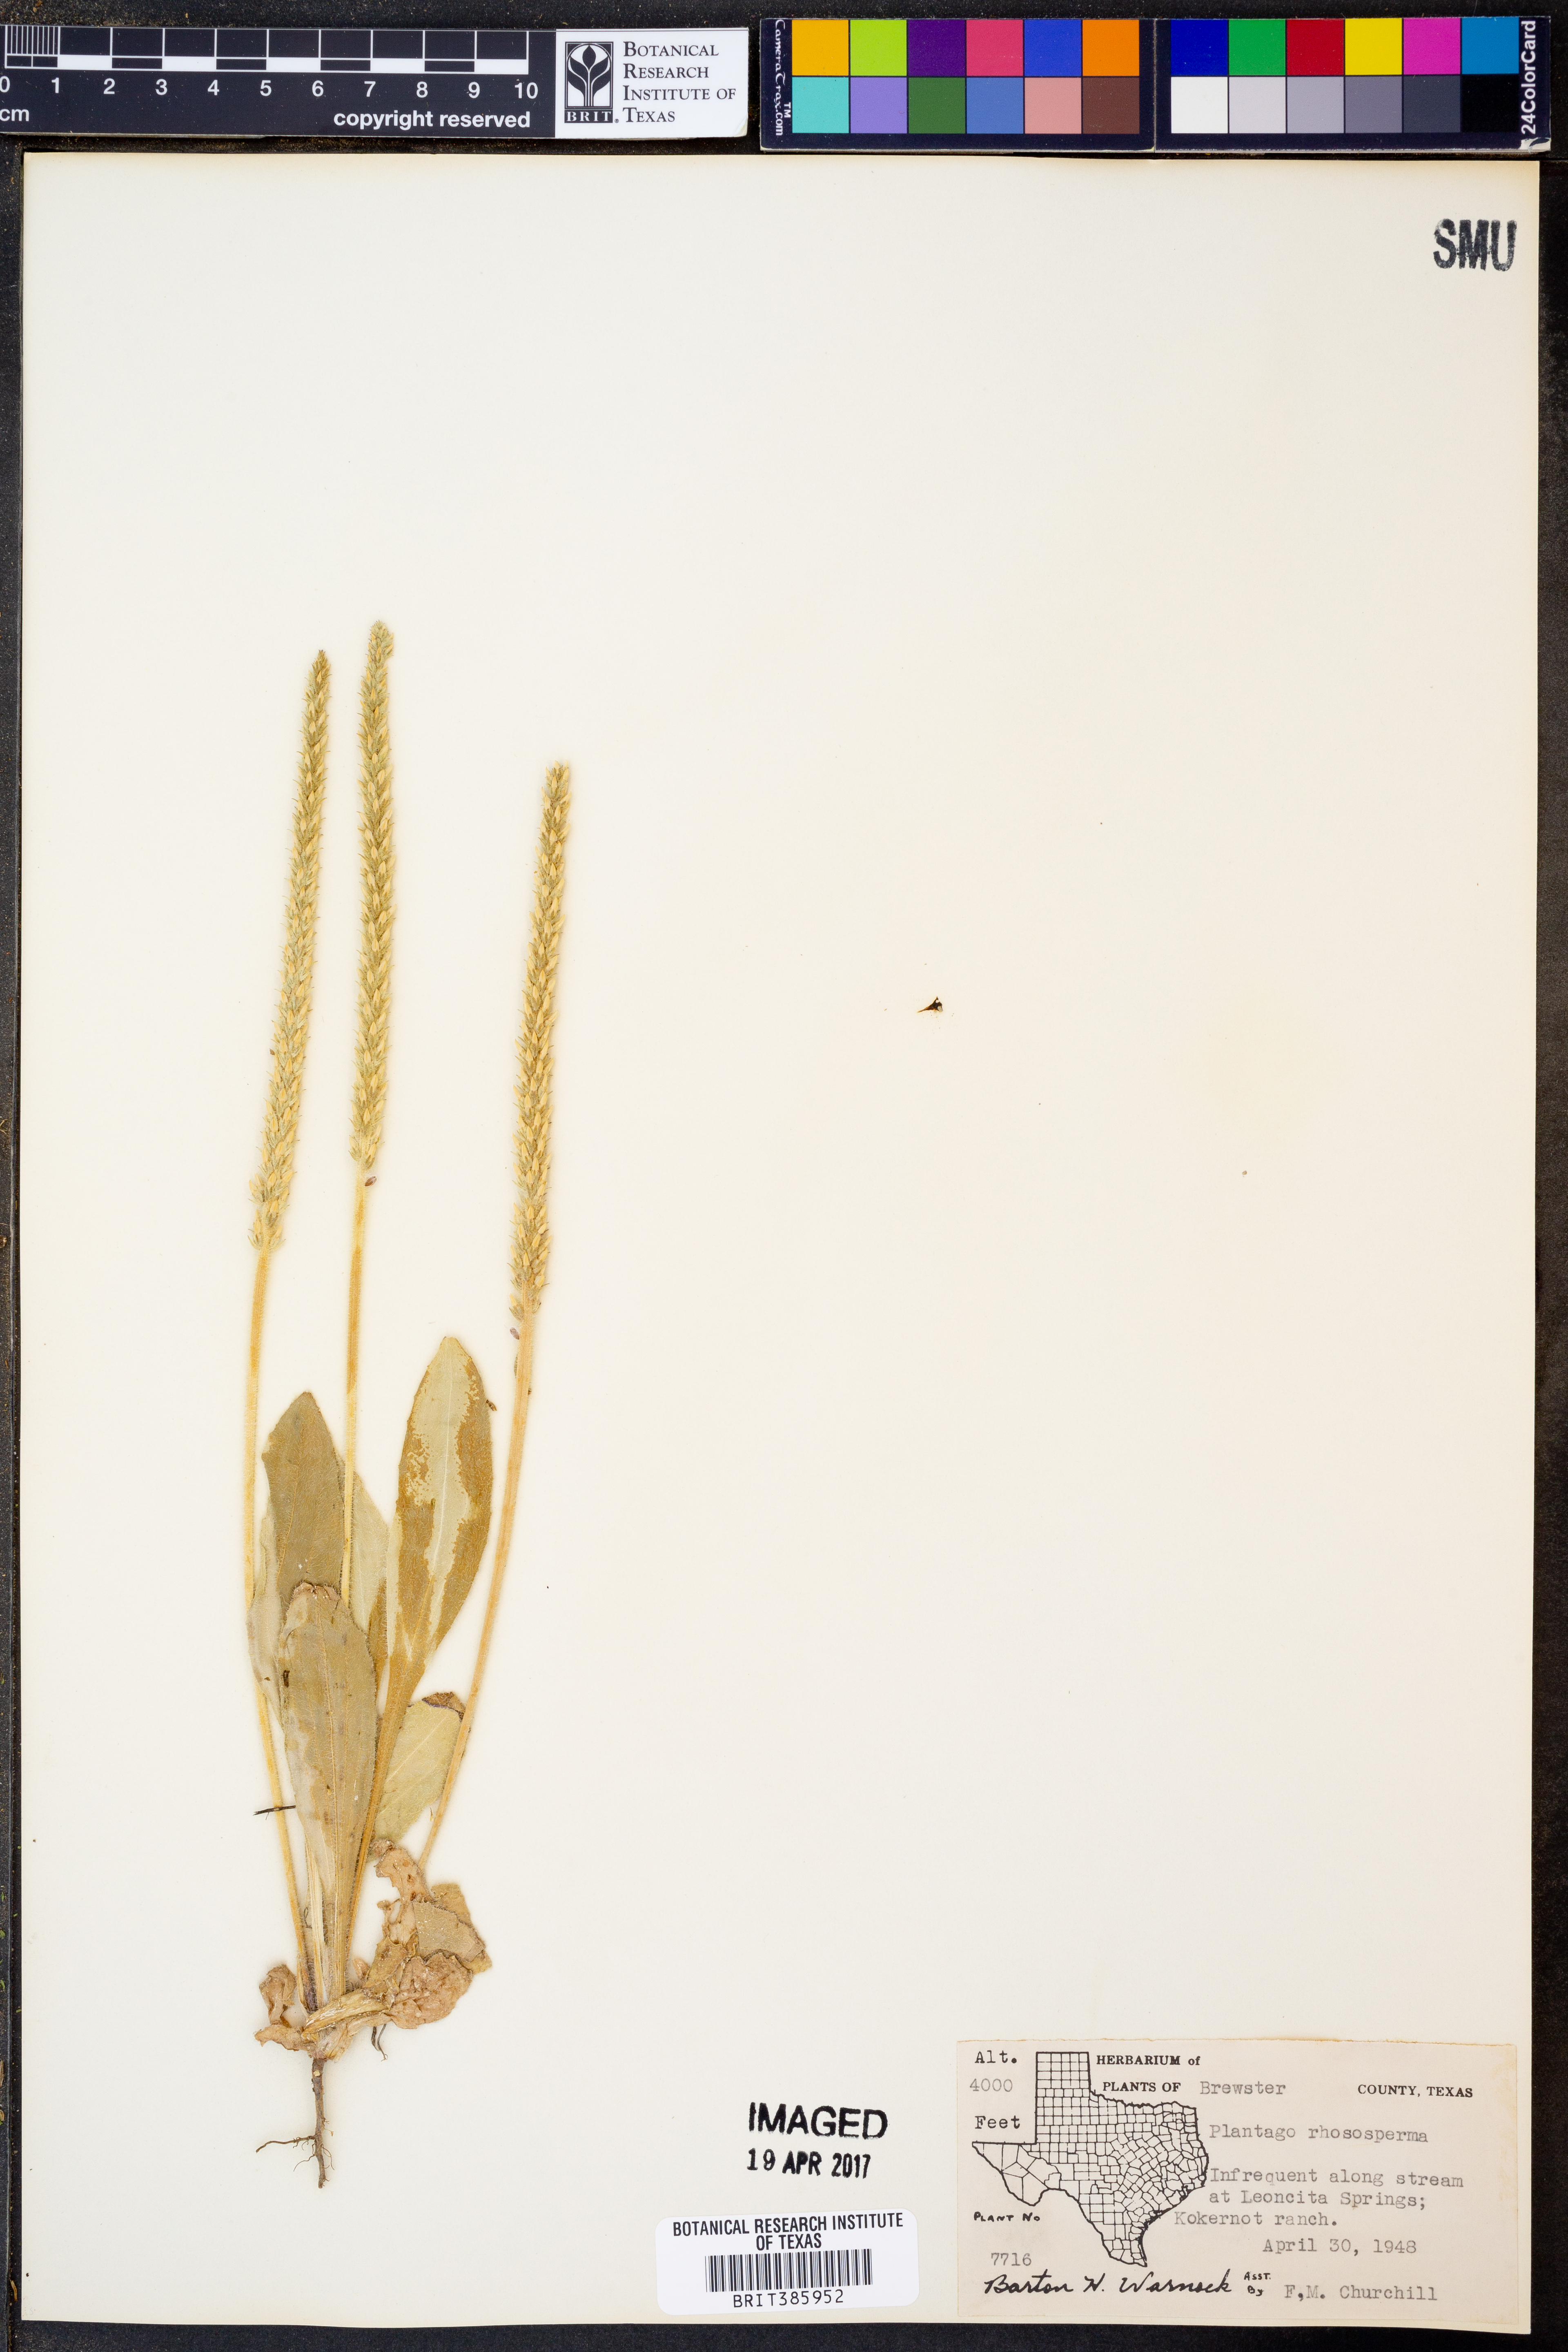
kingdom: Plantae
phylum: Tracheophyta
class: Magnoliopsida
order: Lamiales
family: Plantaginaceae
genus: Plantago
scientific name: Plantago rhodosperma
